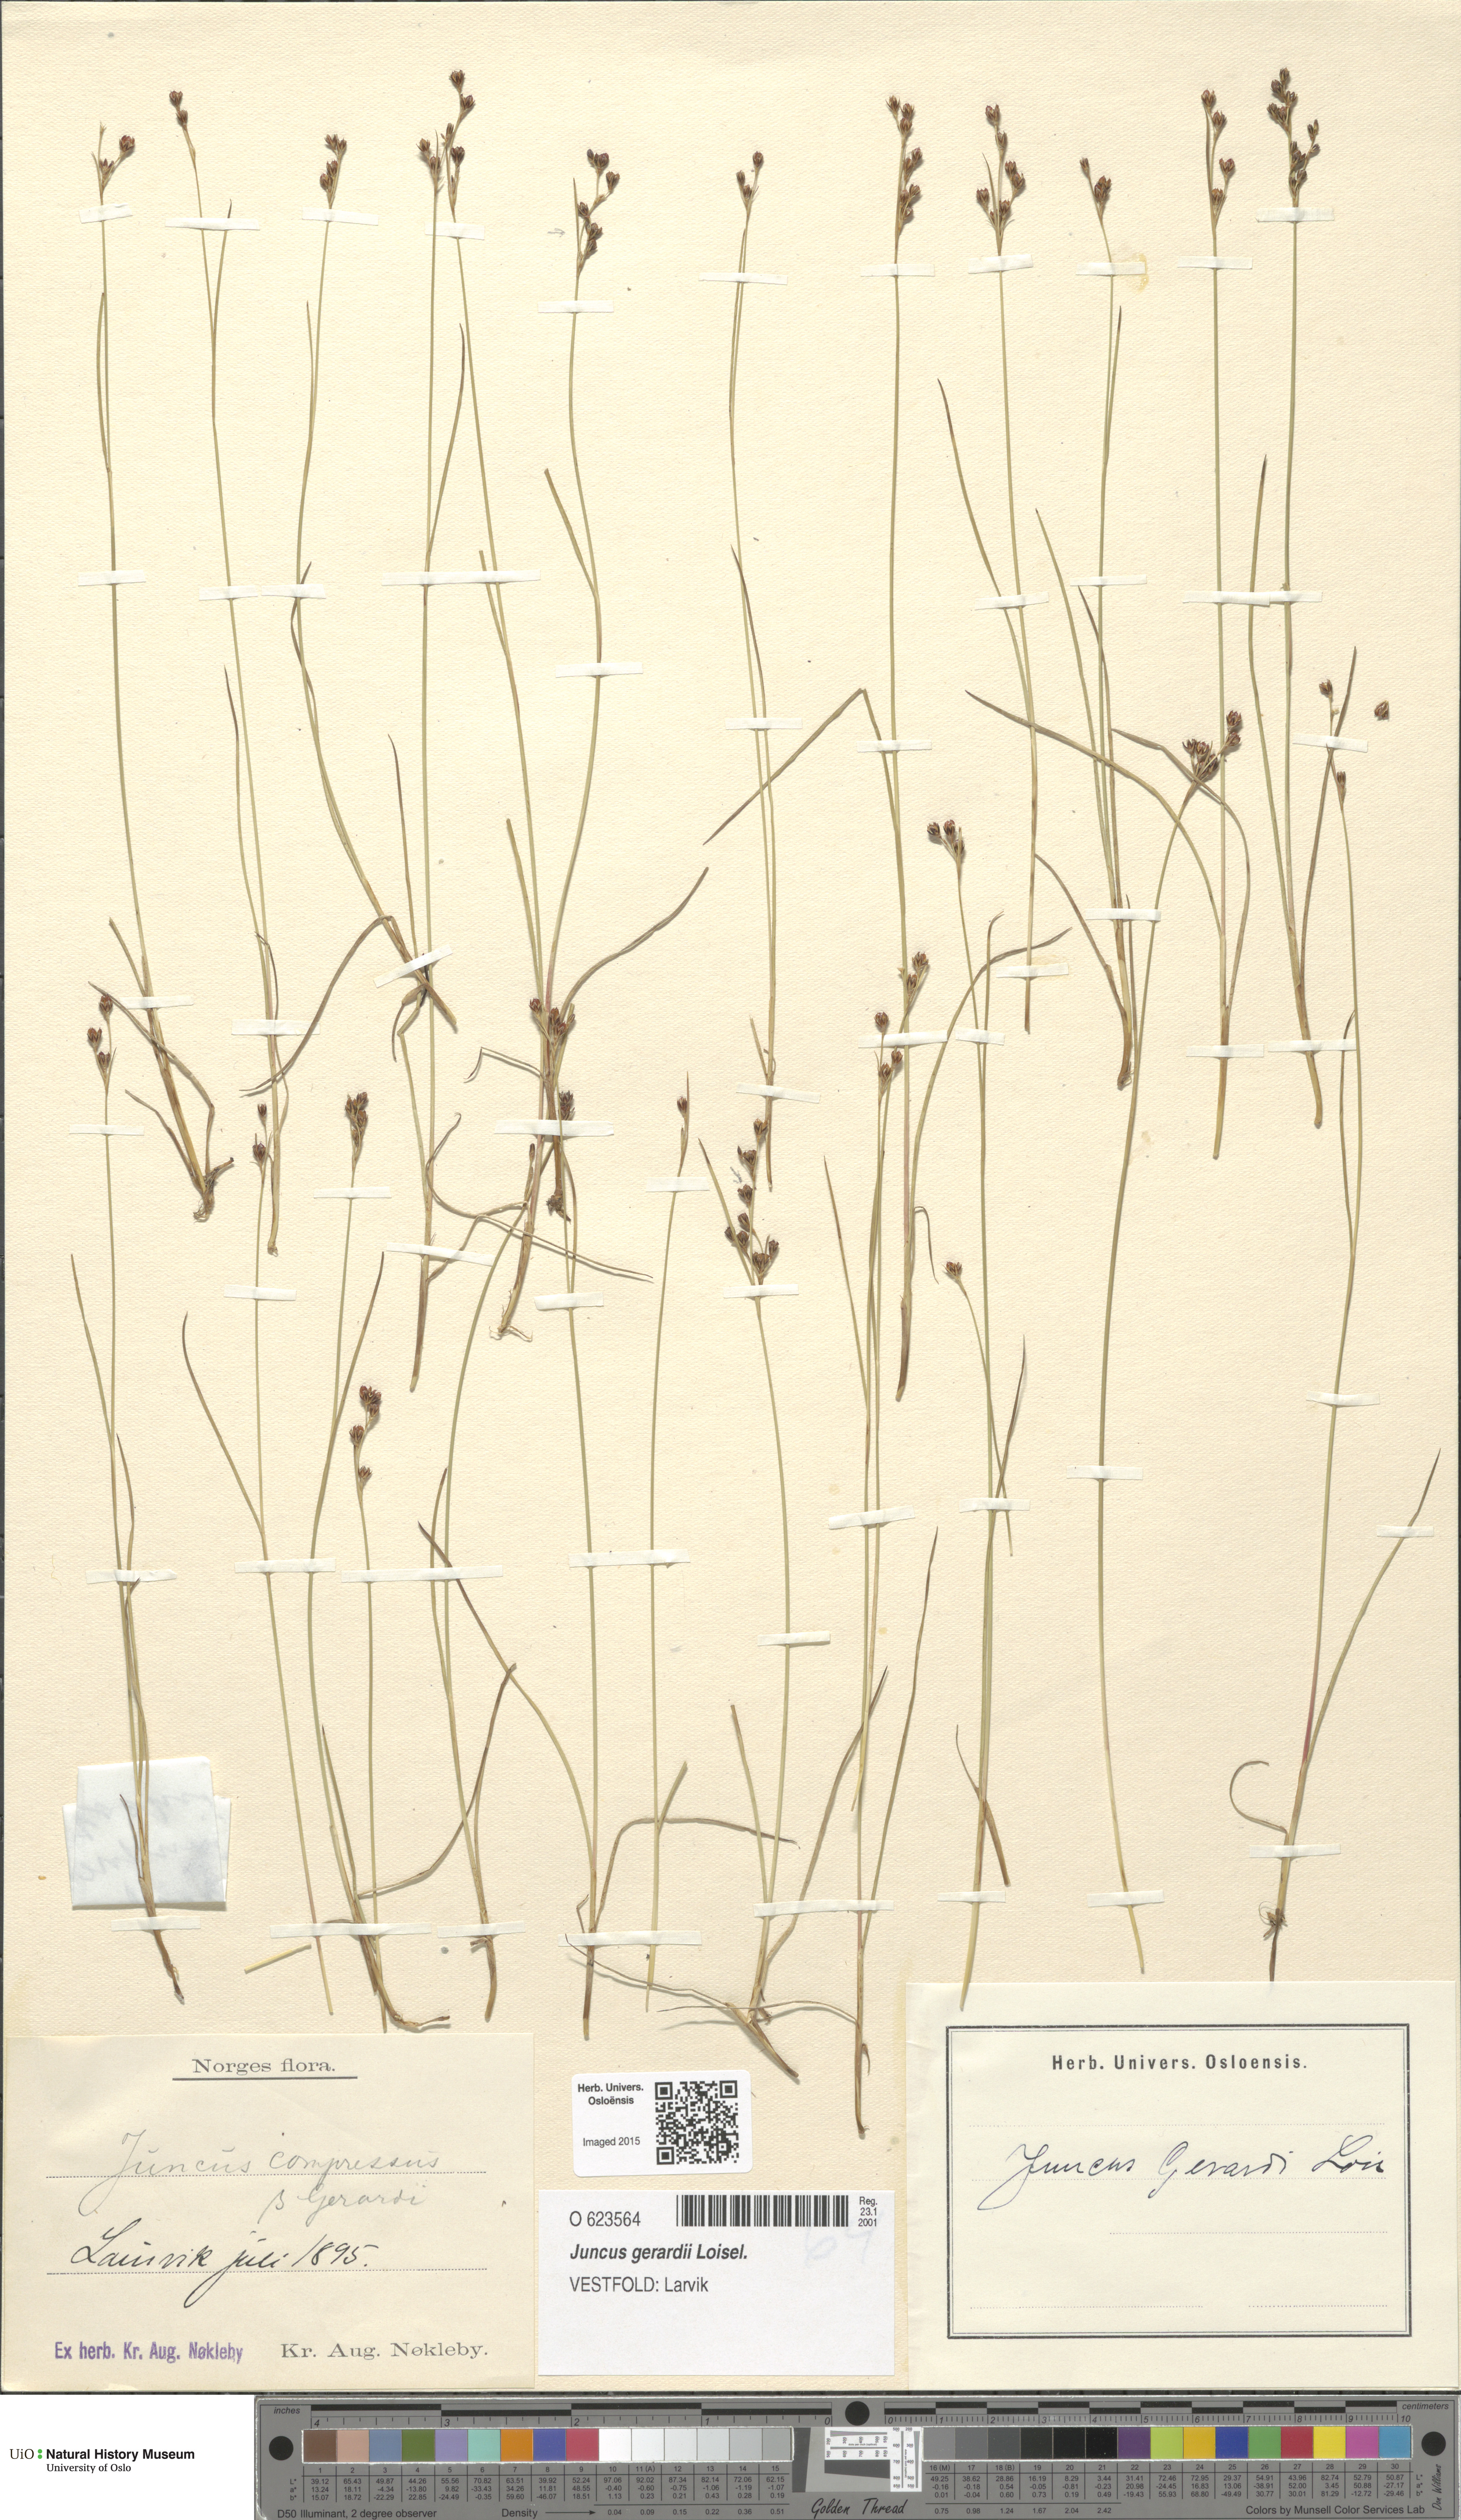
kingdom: Plantae
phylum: Tracheophyta
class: Liliopsida
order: Poales
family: Juncaceae
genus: Juncus
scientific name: Juncus gerardi
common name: Saltmarsh rush
